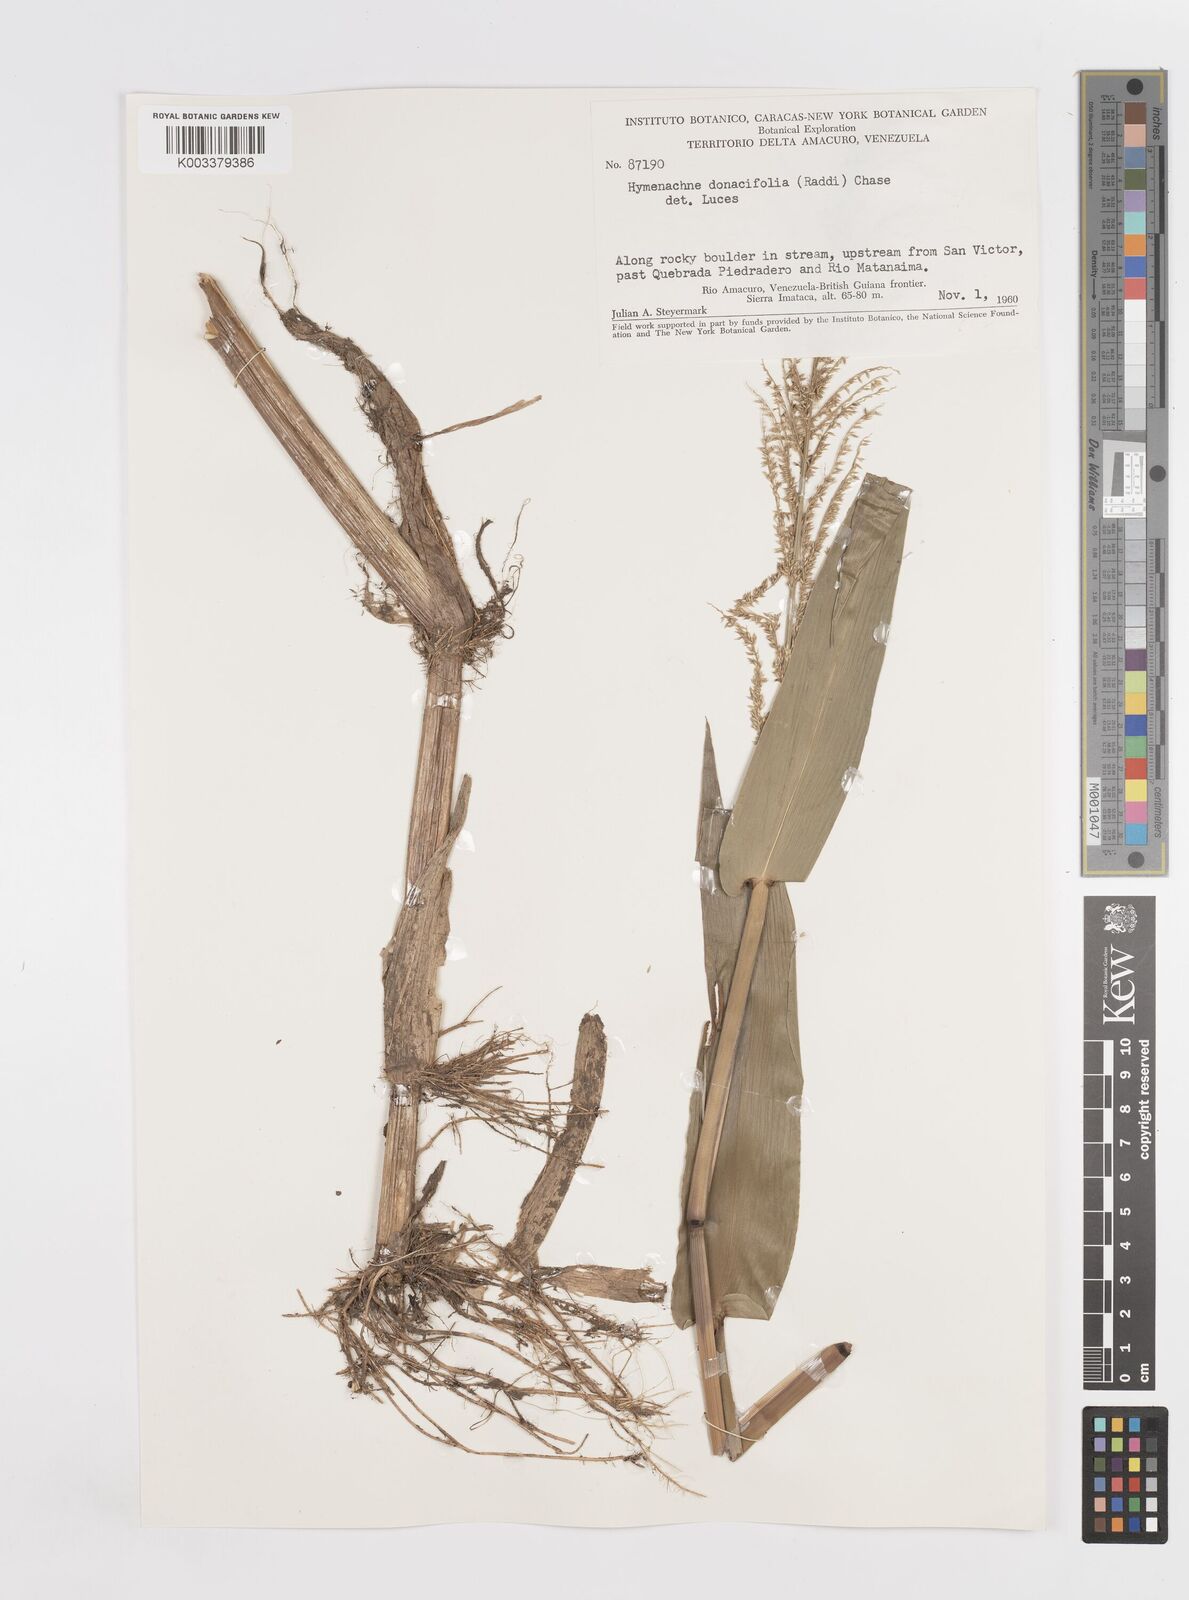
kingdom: Plantae
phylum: Tracheophyta
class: Liliopsida
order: Poales
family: Poaceae
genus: Hymenachne
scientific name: Hymenachne donacifolia
